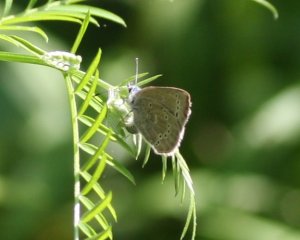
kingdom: Animalia
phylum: Arthropoda
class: Insecta
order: Lepidoptera
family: Lycaenidae
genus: Glaucopsyche
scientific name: Glaucopsyche lygdamus
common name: Silvery Blue
